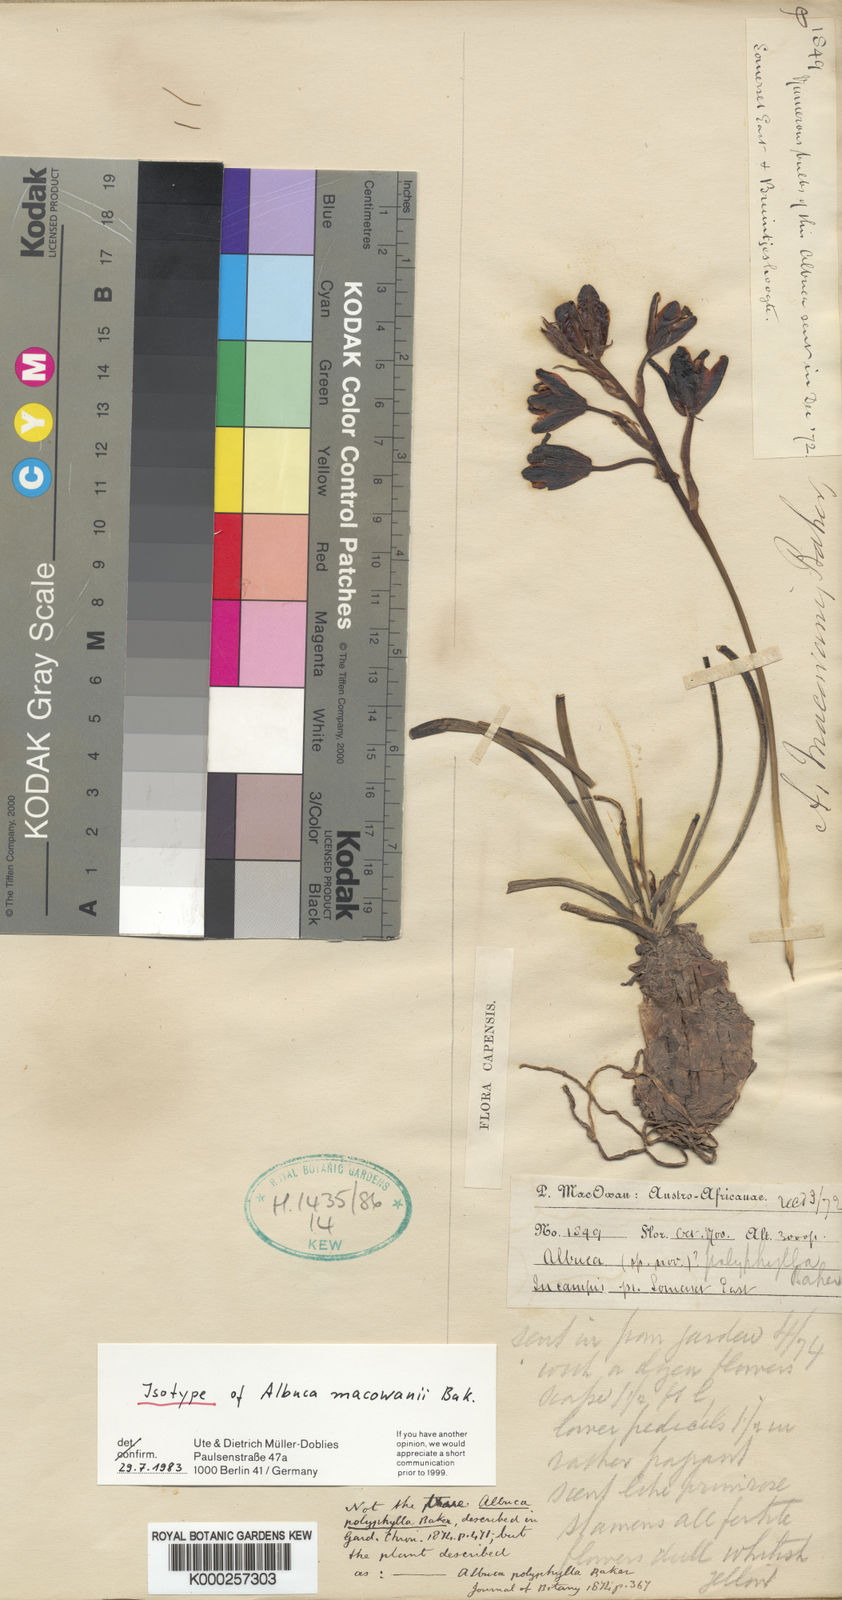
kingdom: Plantae
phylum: Tracheophyta
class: Liliopsida
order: Asparagales
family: Asparagaceae
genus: Albuca
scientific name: Albuca macowanii
